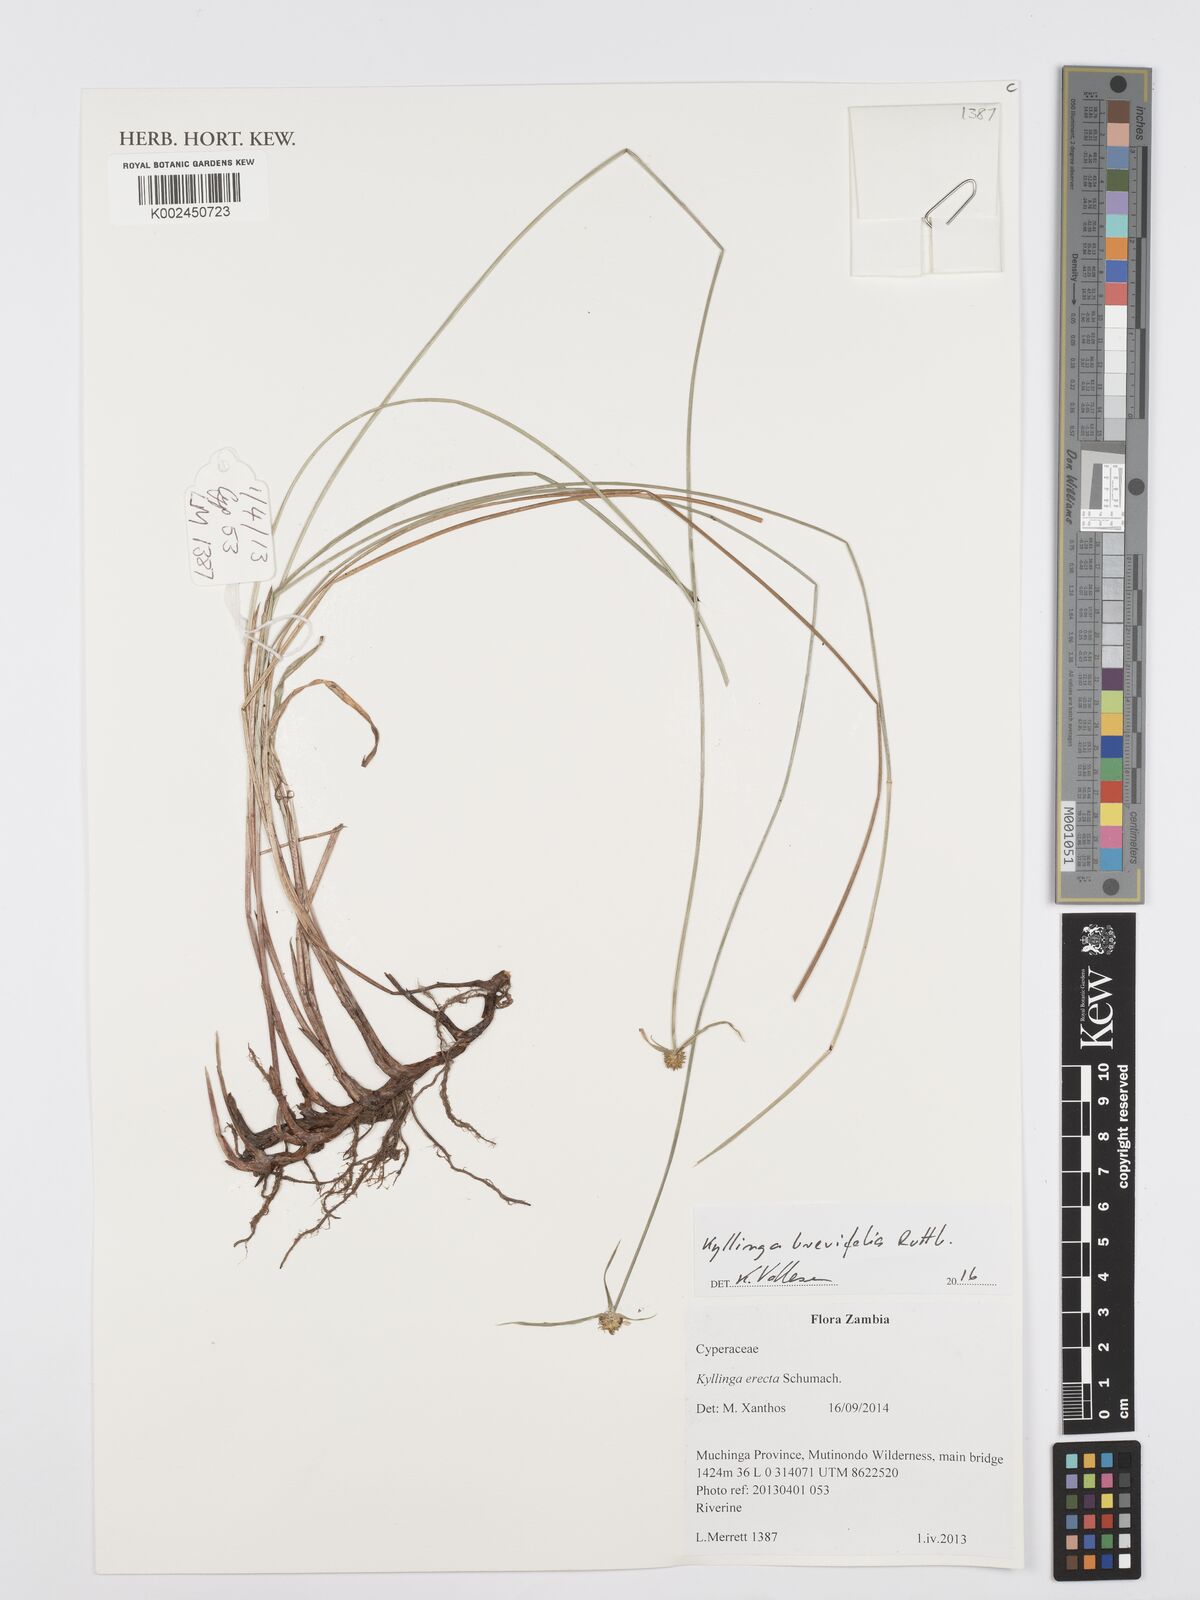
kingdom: Plantae
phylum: Tracheophyta
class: Liliopsida
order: Poales
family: Cyperaceae
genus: Cyperus
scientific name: Cyperus brevifolius
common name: Globe kyllinga
